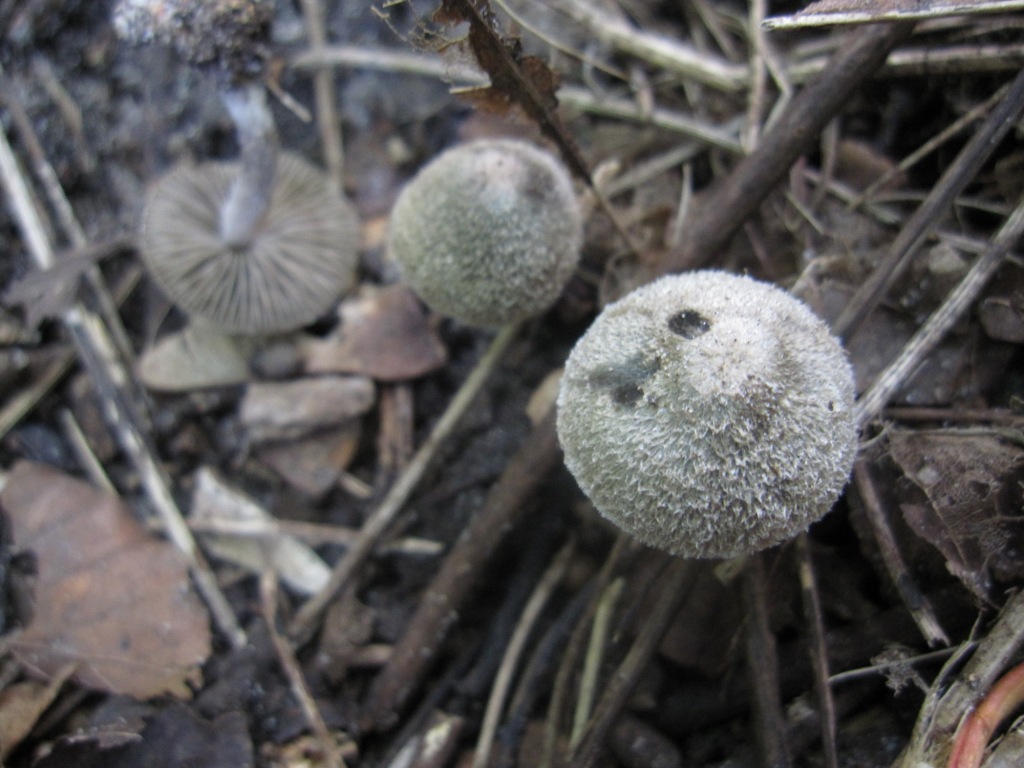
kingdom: Fungi
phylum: Basidiomycota
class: Agaricomycetes
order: Agaricales
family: Entolomataceae
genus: Entoloma
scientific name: Entoloma araneosum
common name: spindelvævs-rødblad
